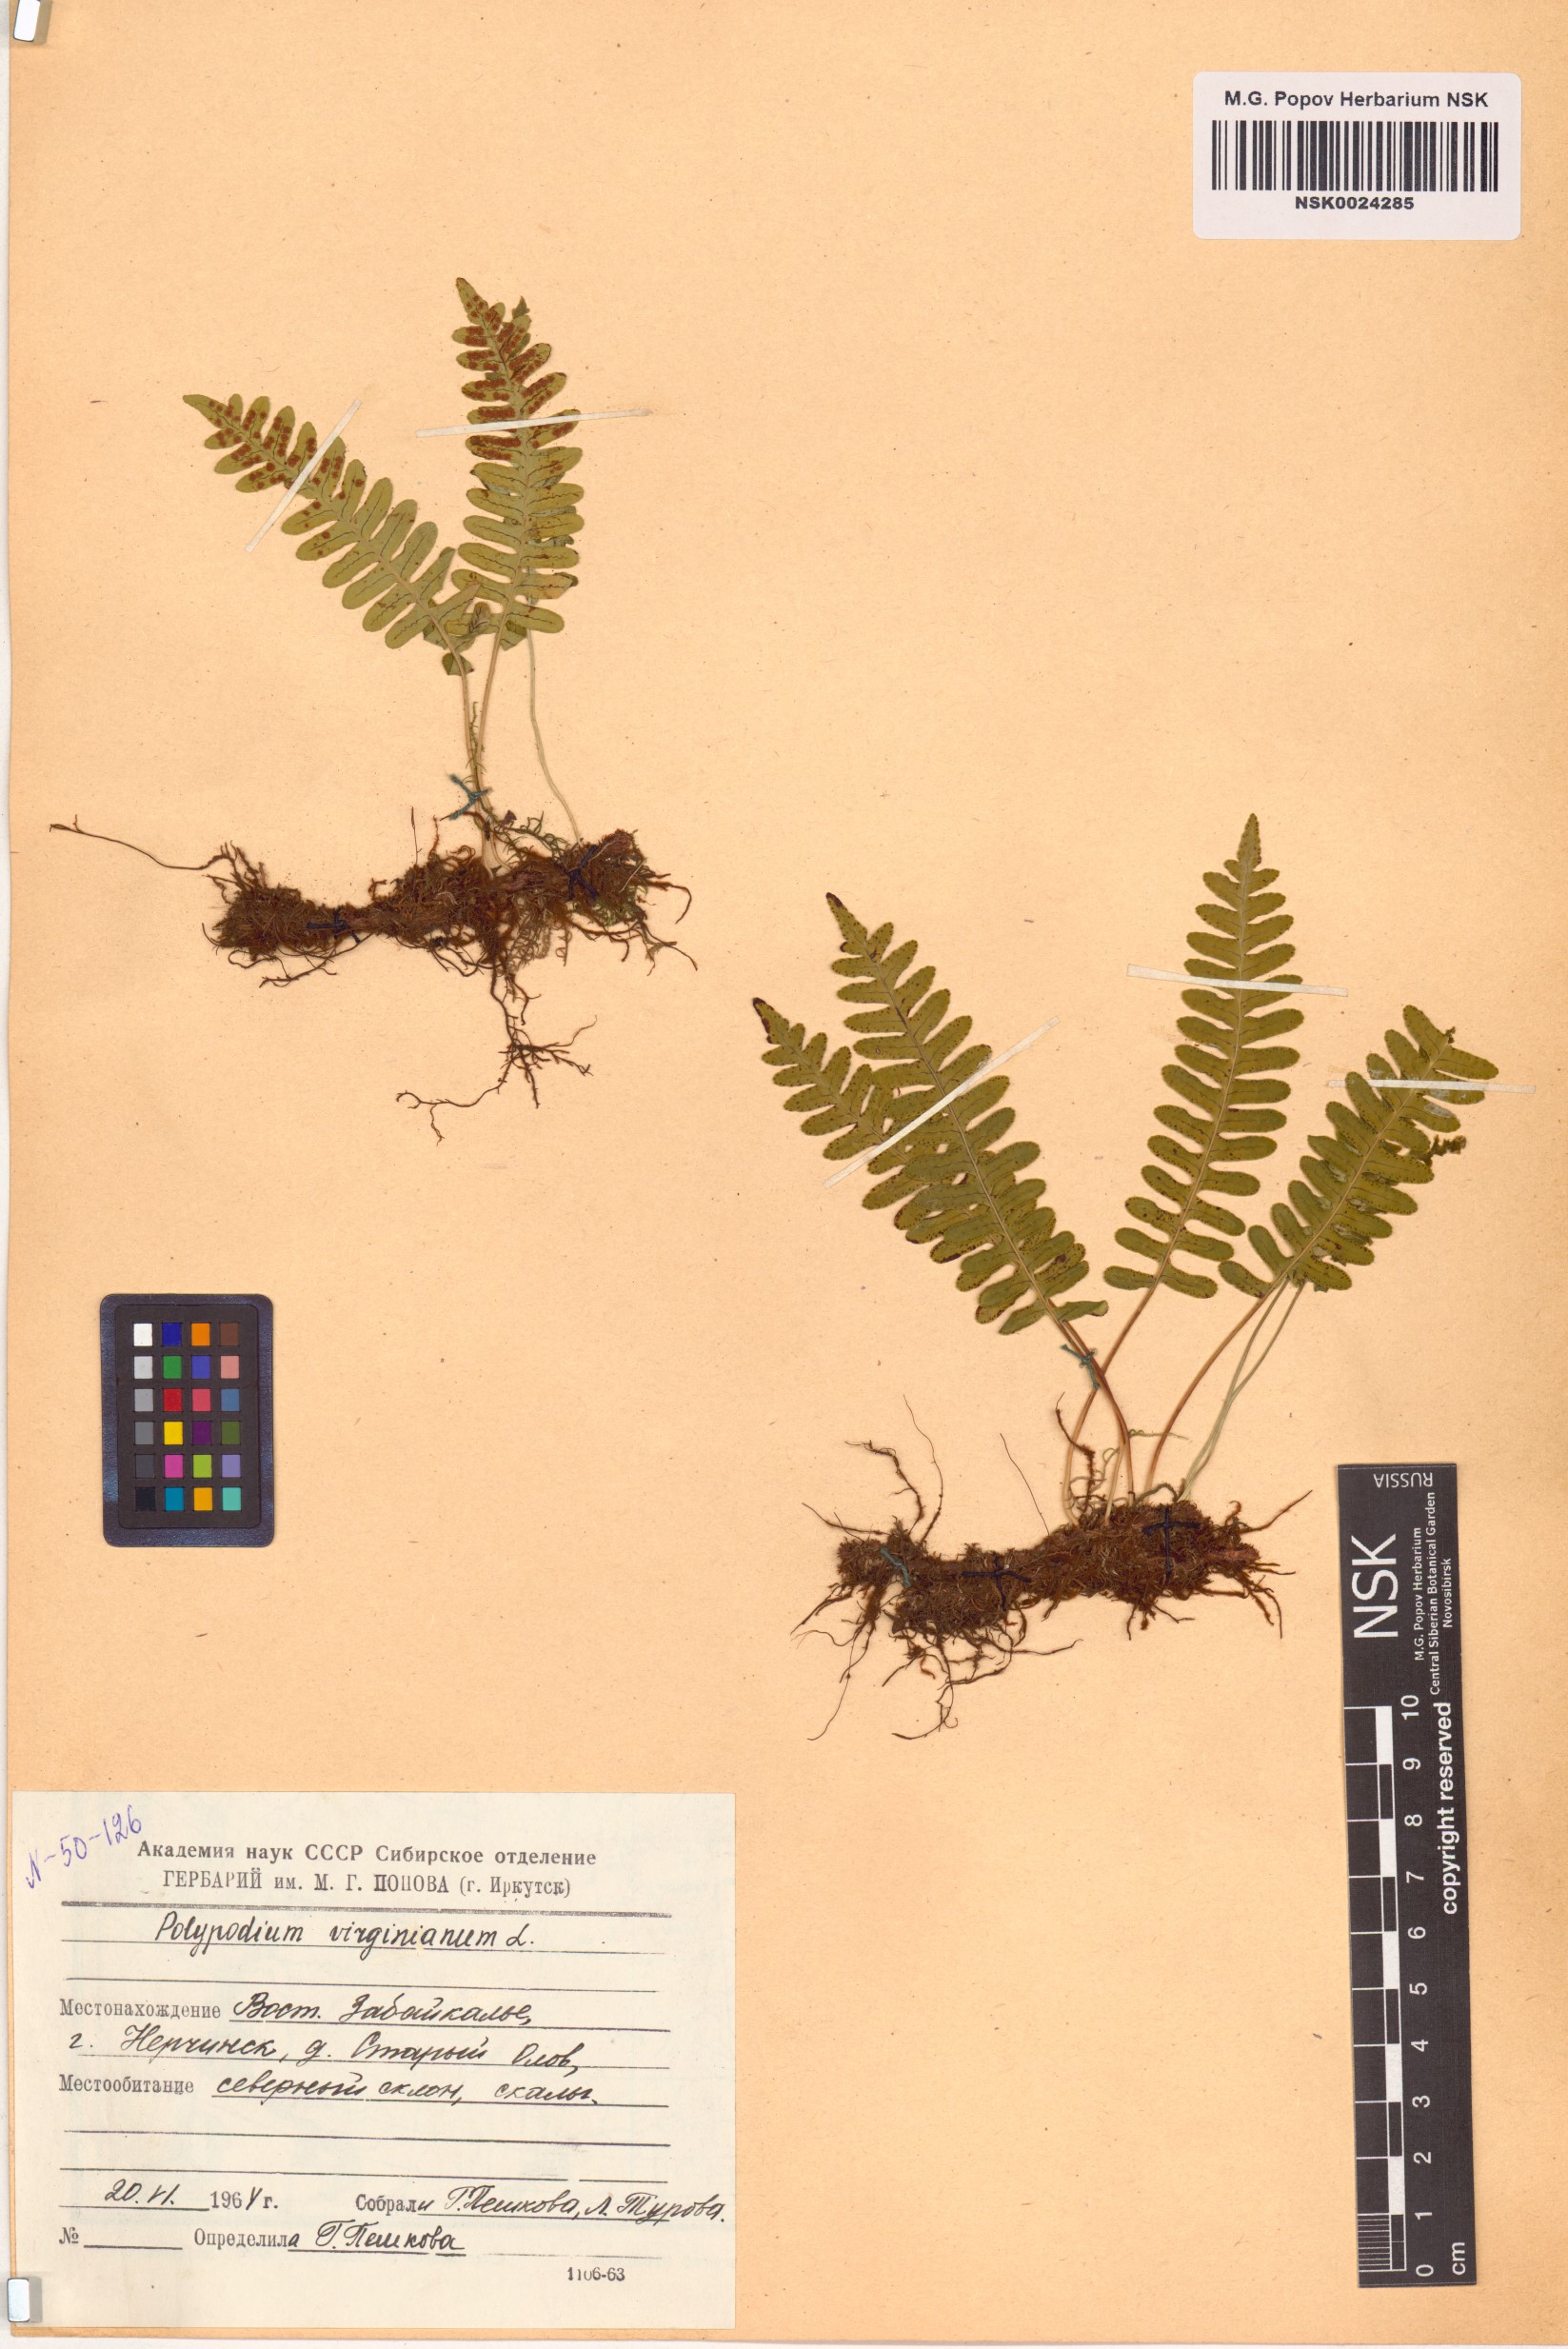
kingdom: Plantae
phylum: Tracheophyta
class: Polypodiopsida
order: Polypodiales
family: Polypodiaceae
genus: Polypodium
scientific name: Polypodium virginianum
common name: American wall fern
